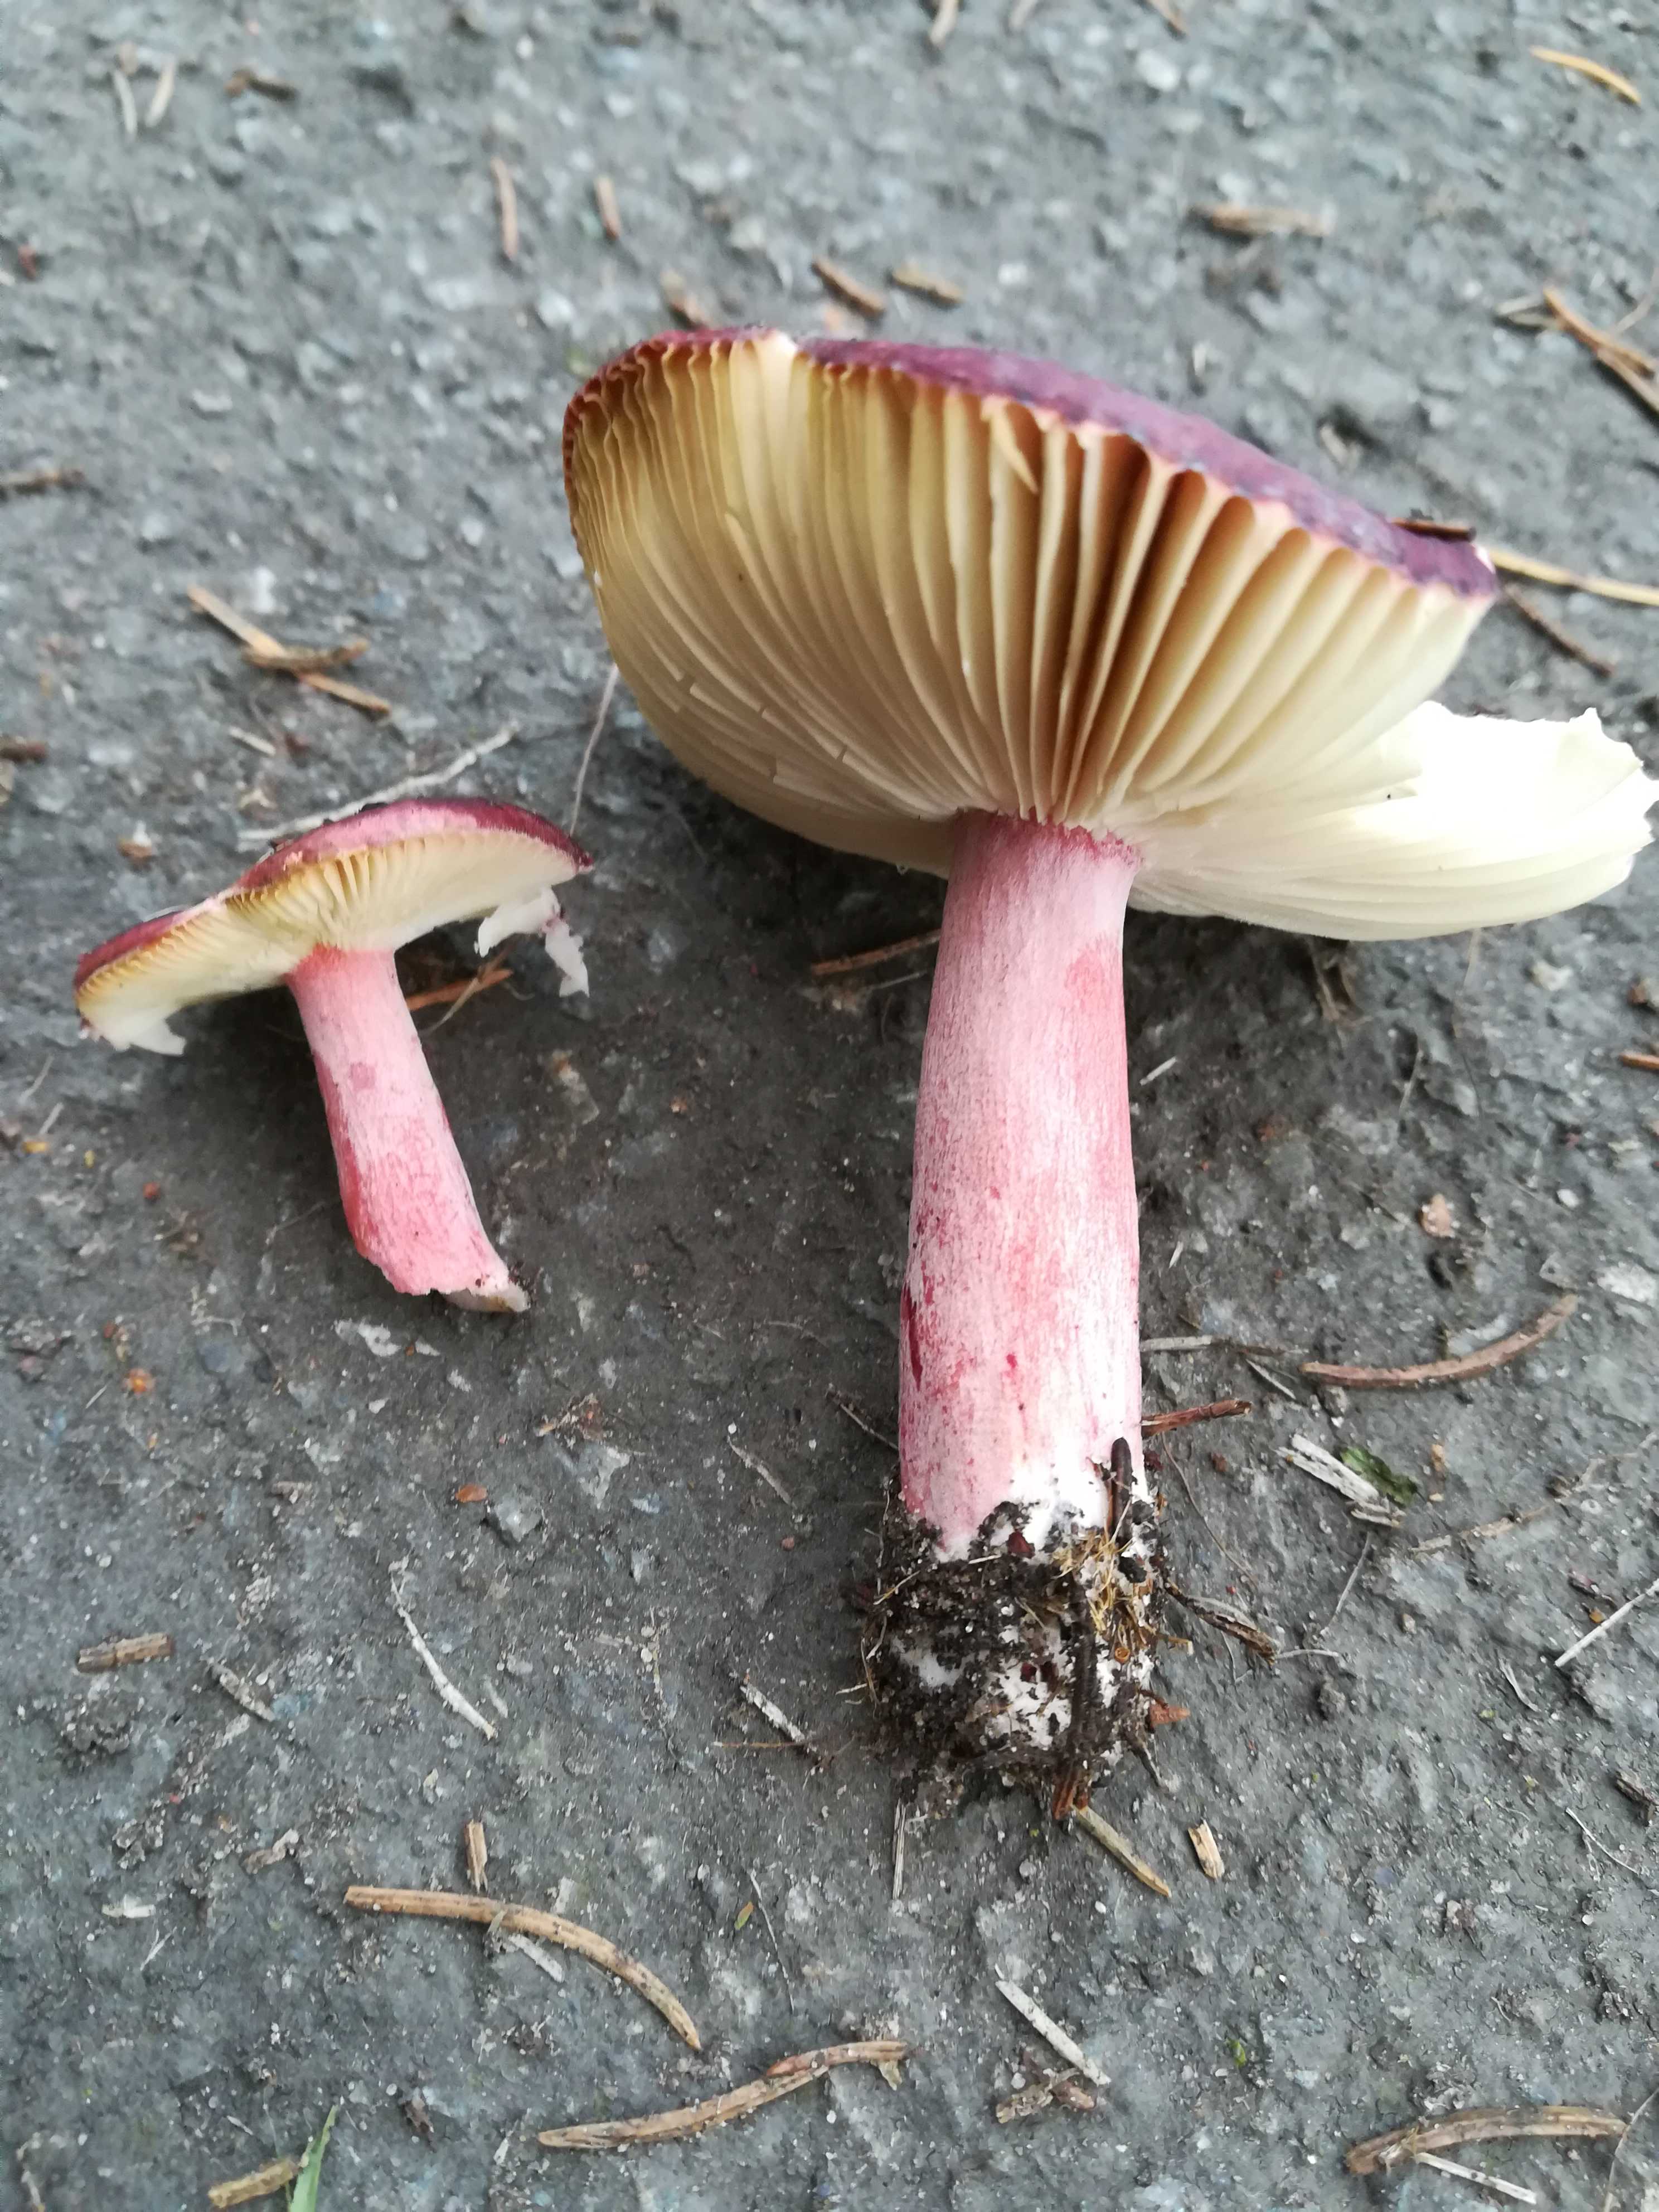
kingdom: Fungi
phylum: Basidiomycota
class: Agaricomycetes
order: Russulales
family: Russulaceae
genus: Russula
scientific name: Russula
